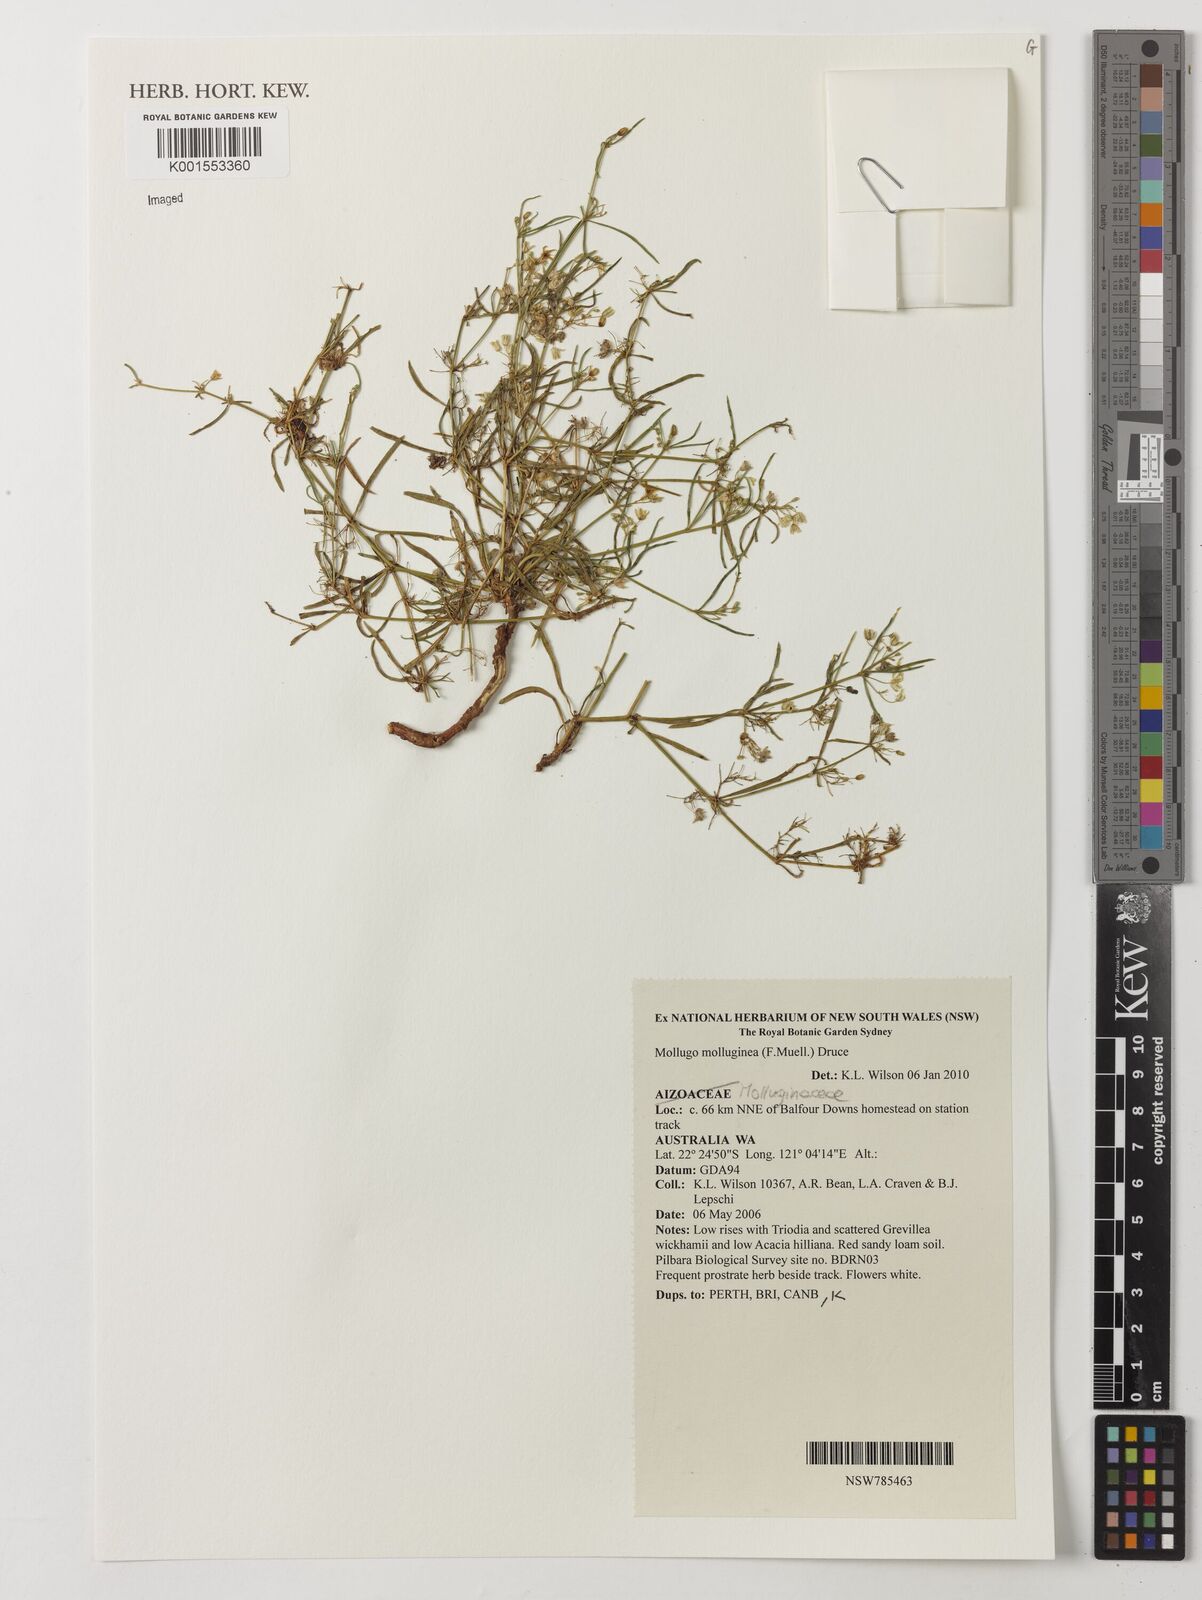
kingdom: Plantae
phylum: Tracheophyta
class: Magnoliopsida
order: Caryophyllales
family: Molluginaceae
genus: Trigastrotheca
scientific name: Trigastrotheca molluginea
